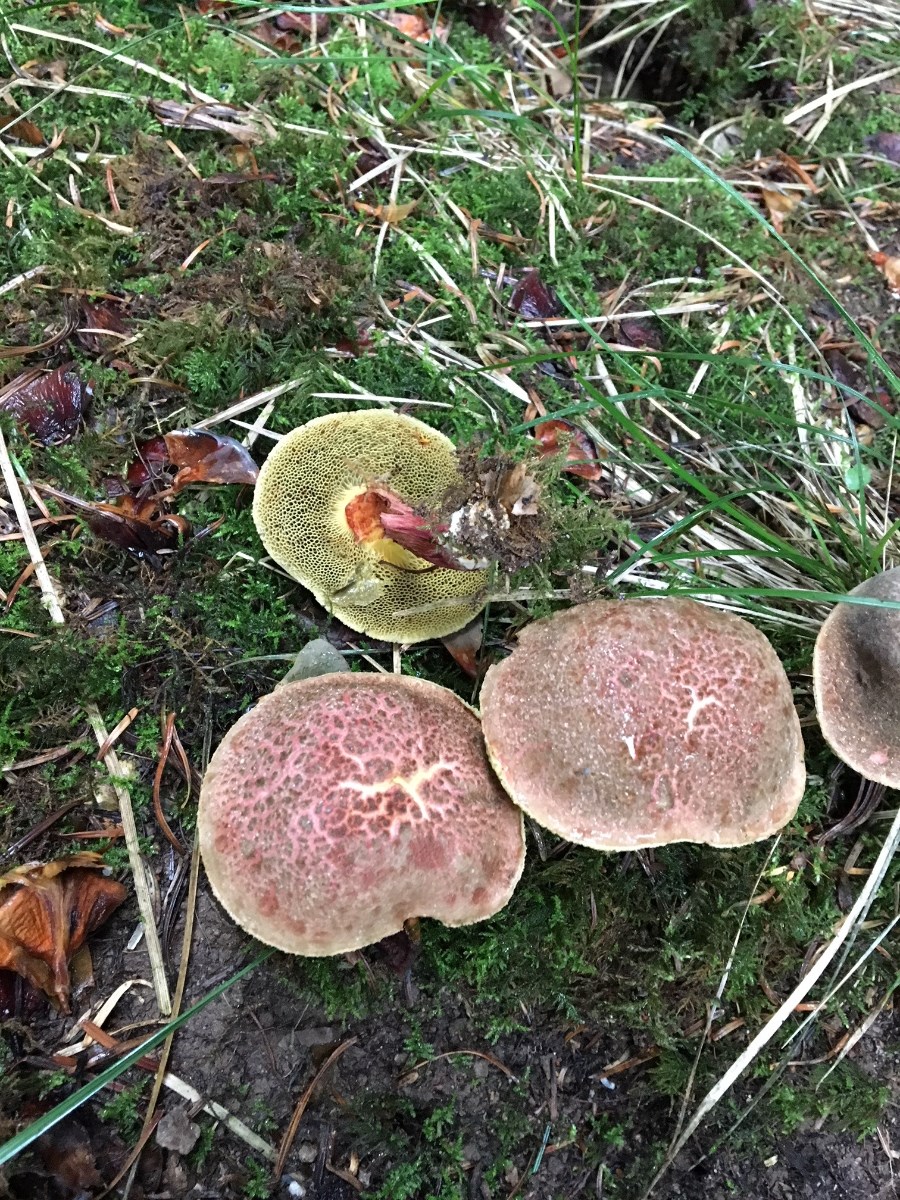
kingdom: Fungi
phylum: Basidiomycota
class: Agaricomycetes
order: Boletales
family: Boletaceae
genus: Xerocomellus
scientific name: Xerocomellus
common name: dværgrørhat
